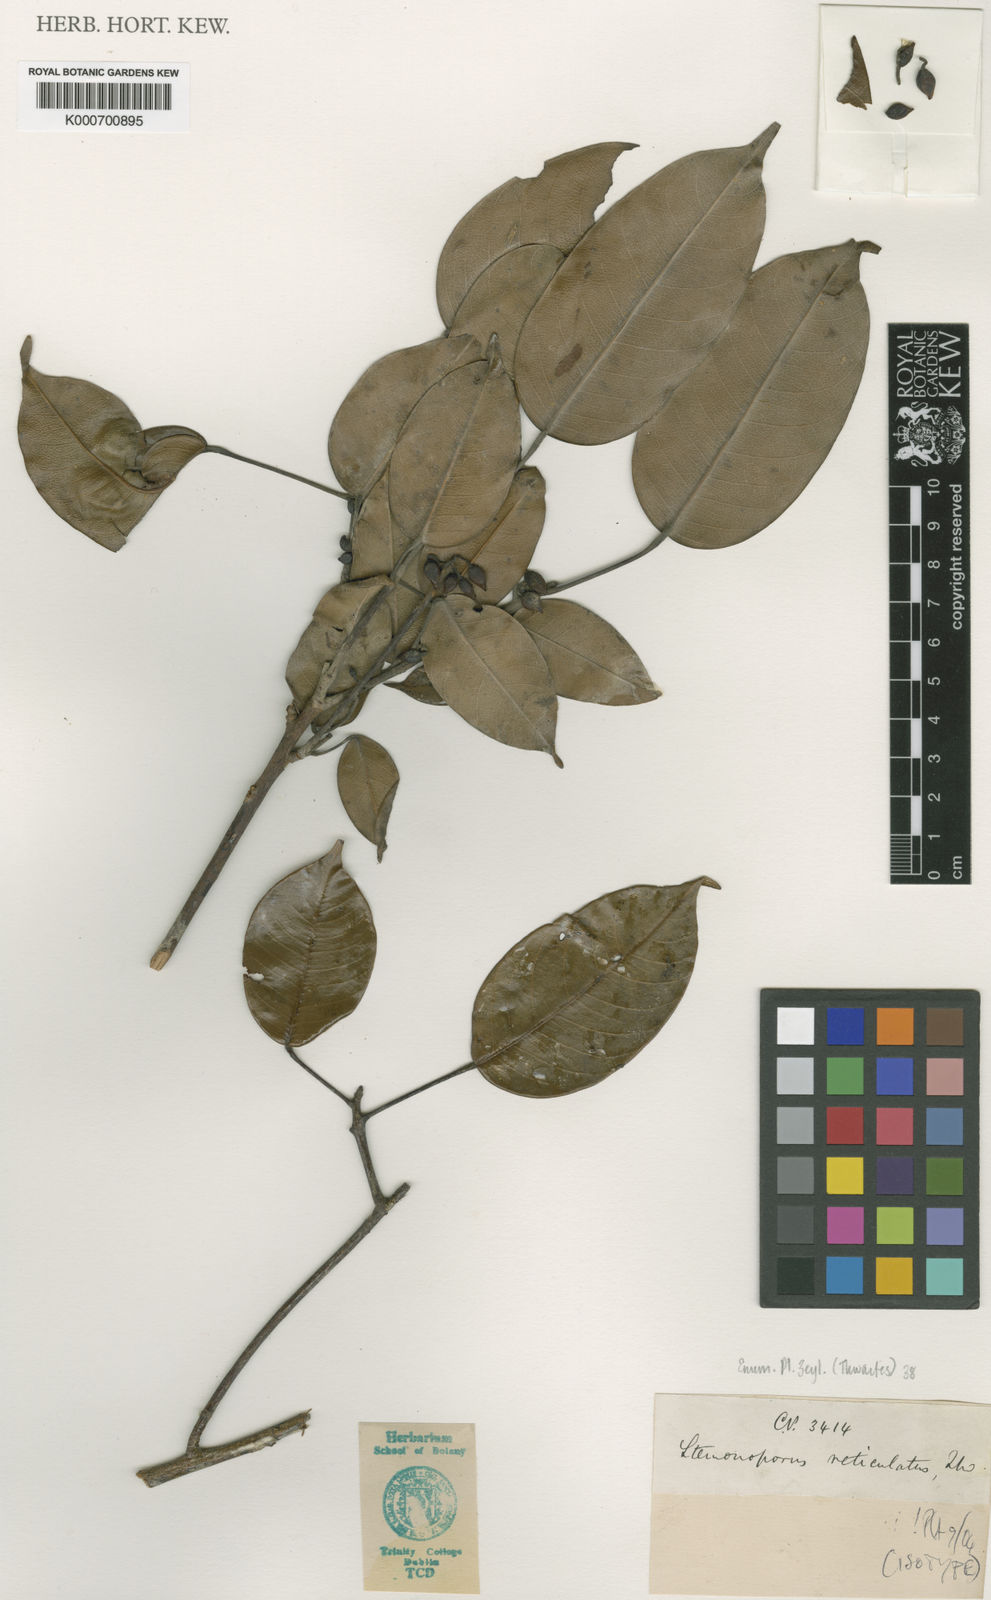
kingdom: Plantae
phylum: Tracheophyta
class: Magnoliopsida
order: Malvales
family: Dipterocarpaceae
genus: Stemonoporus
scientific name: Stemonoporus reticulatus
